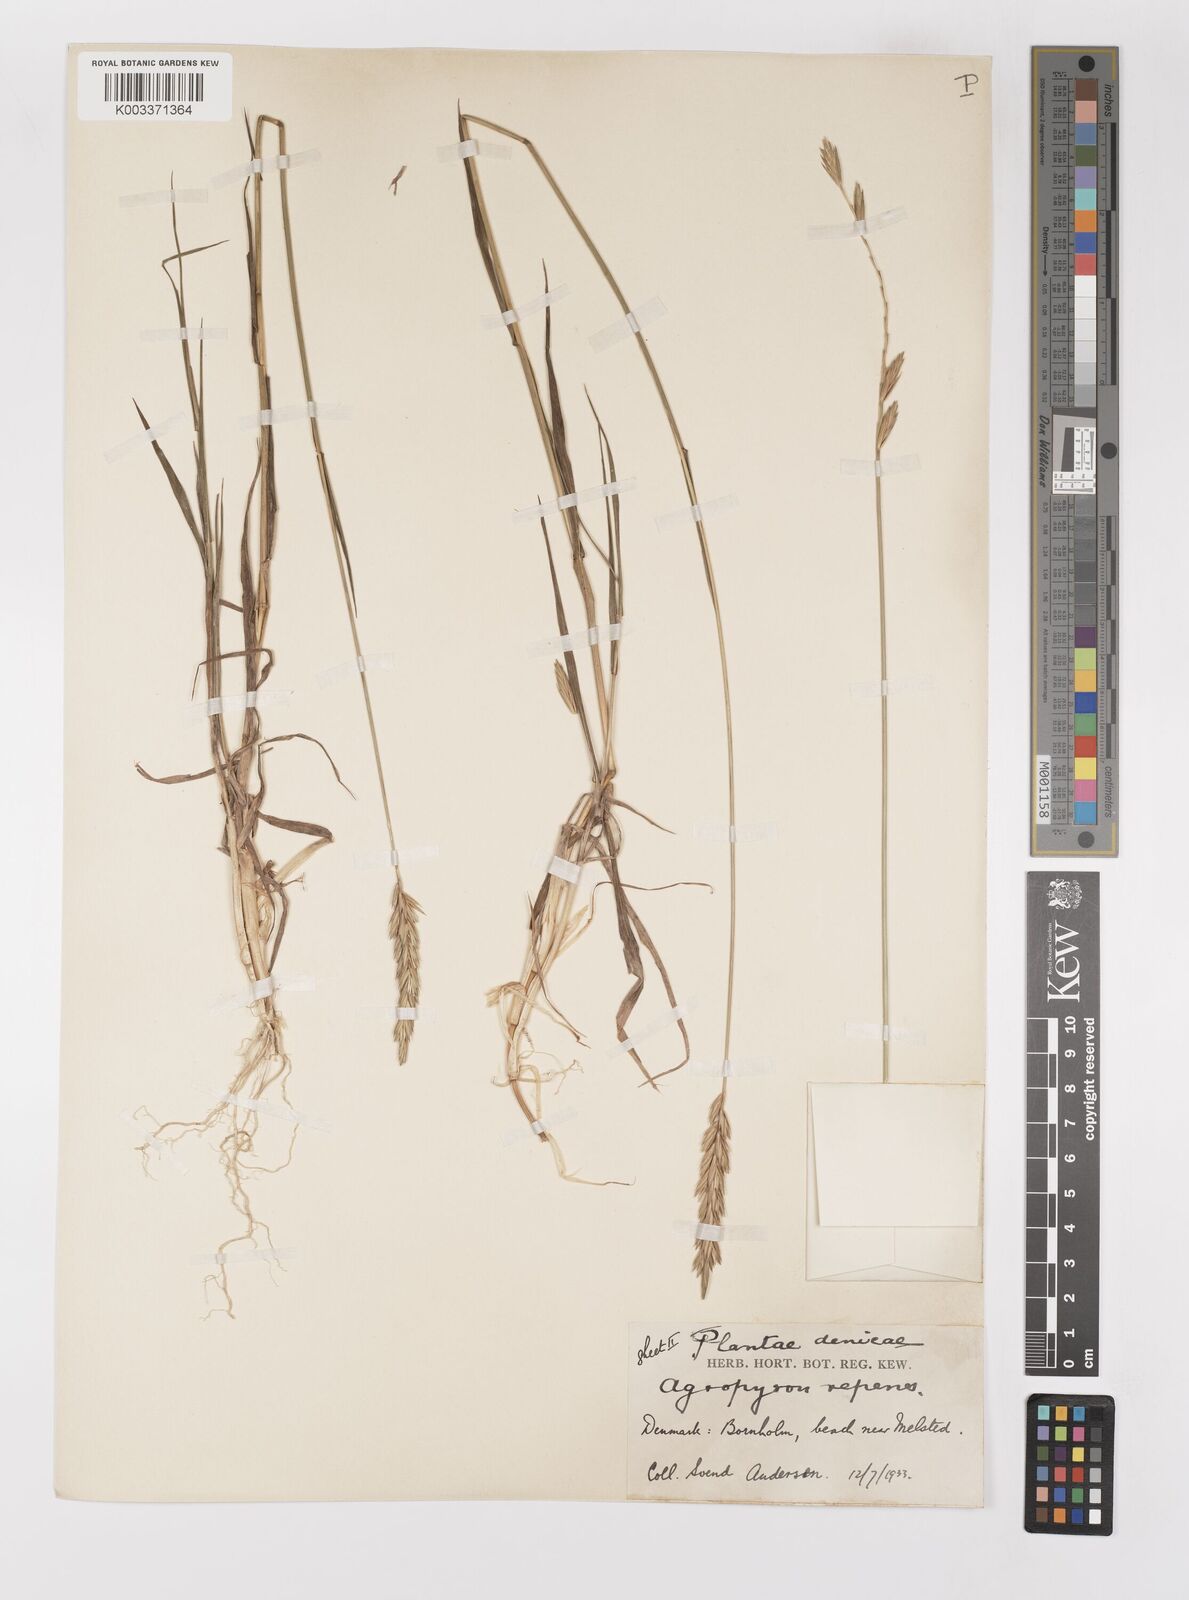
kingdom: Plantae
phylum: Tracheophyta
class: Liliopsida
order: Poales
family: Poaceae
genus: Elymus
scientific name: Elymus repens
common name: Quackgrass
